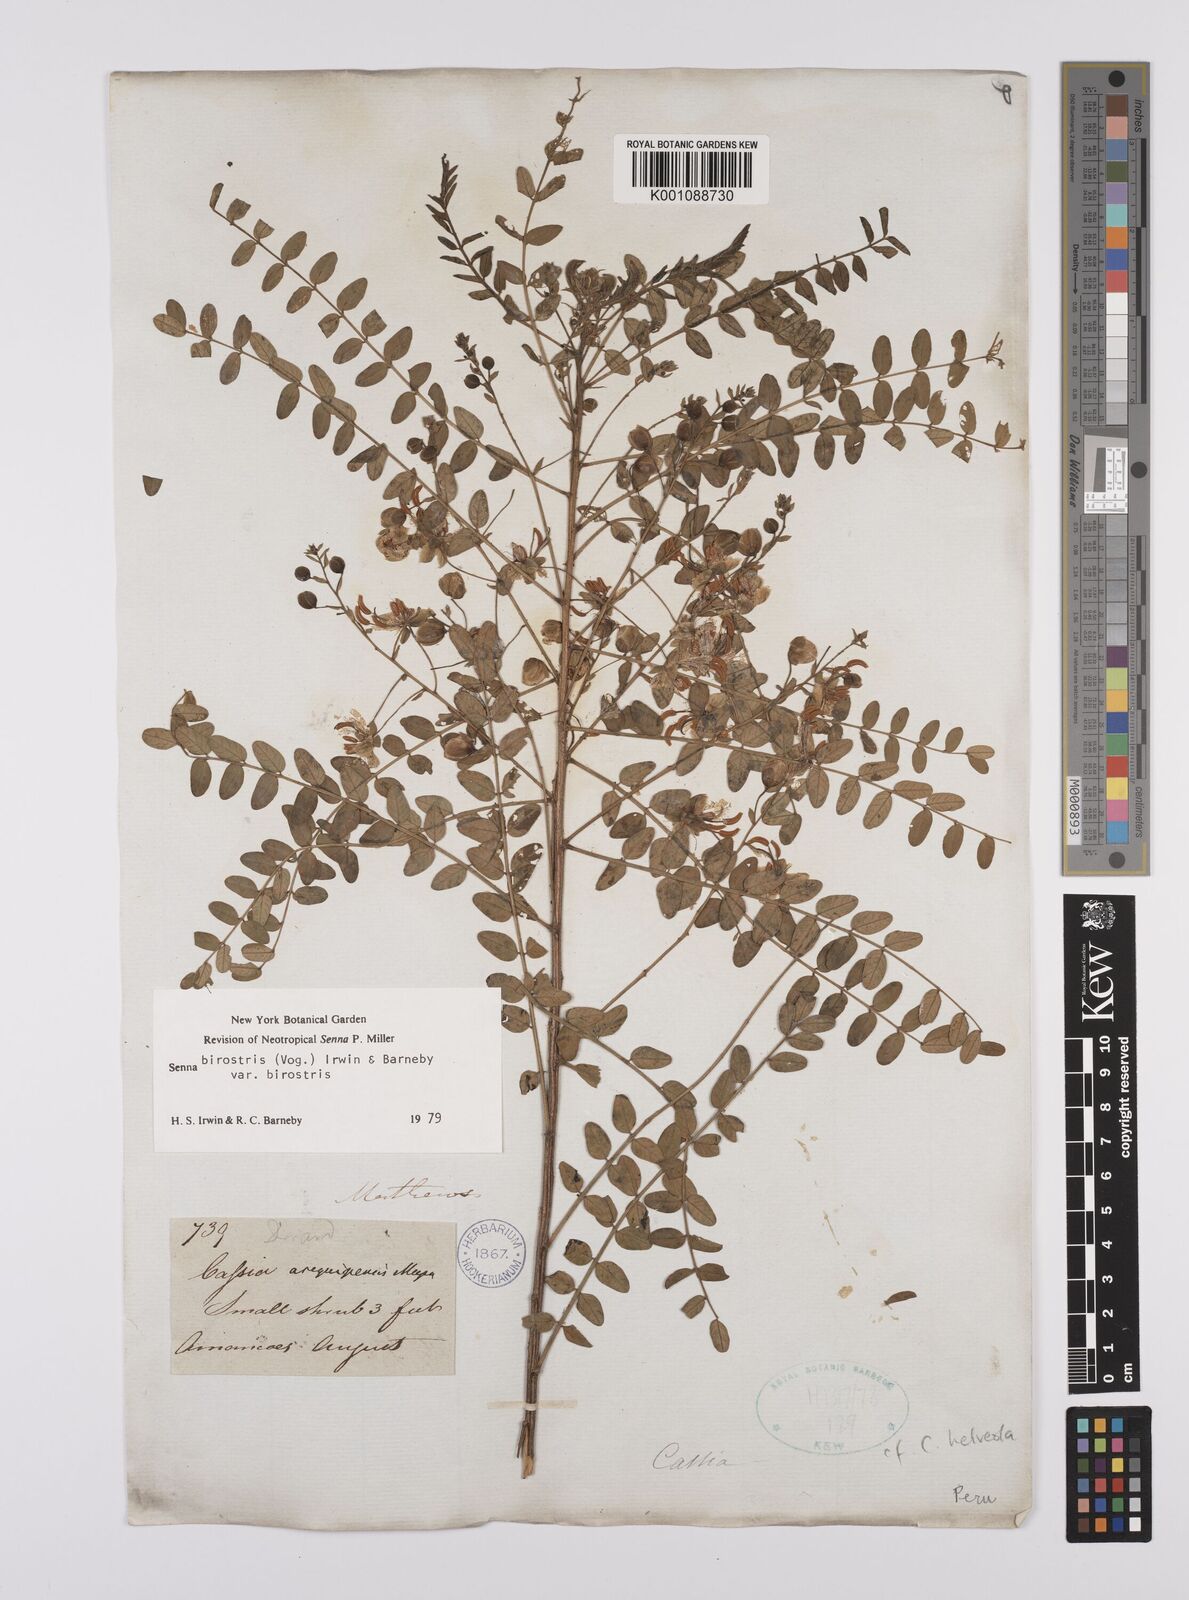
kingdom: Plantae
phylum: Tracheophyta
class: Magnoliopsida
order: Fabales
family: Fabaceae
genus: Senna
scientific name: Senna birostris
